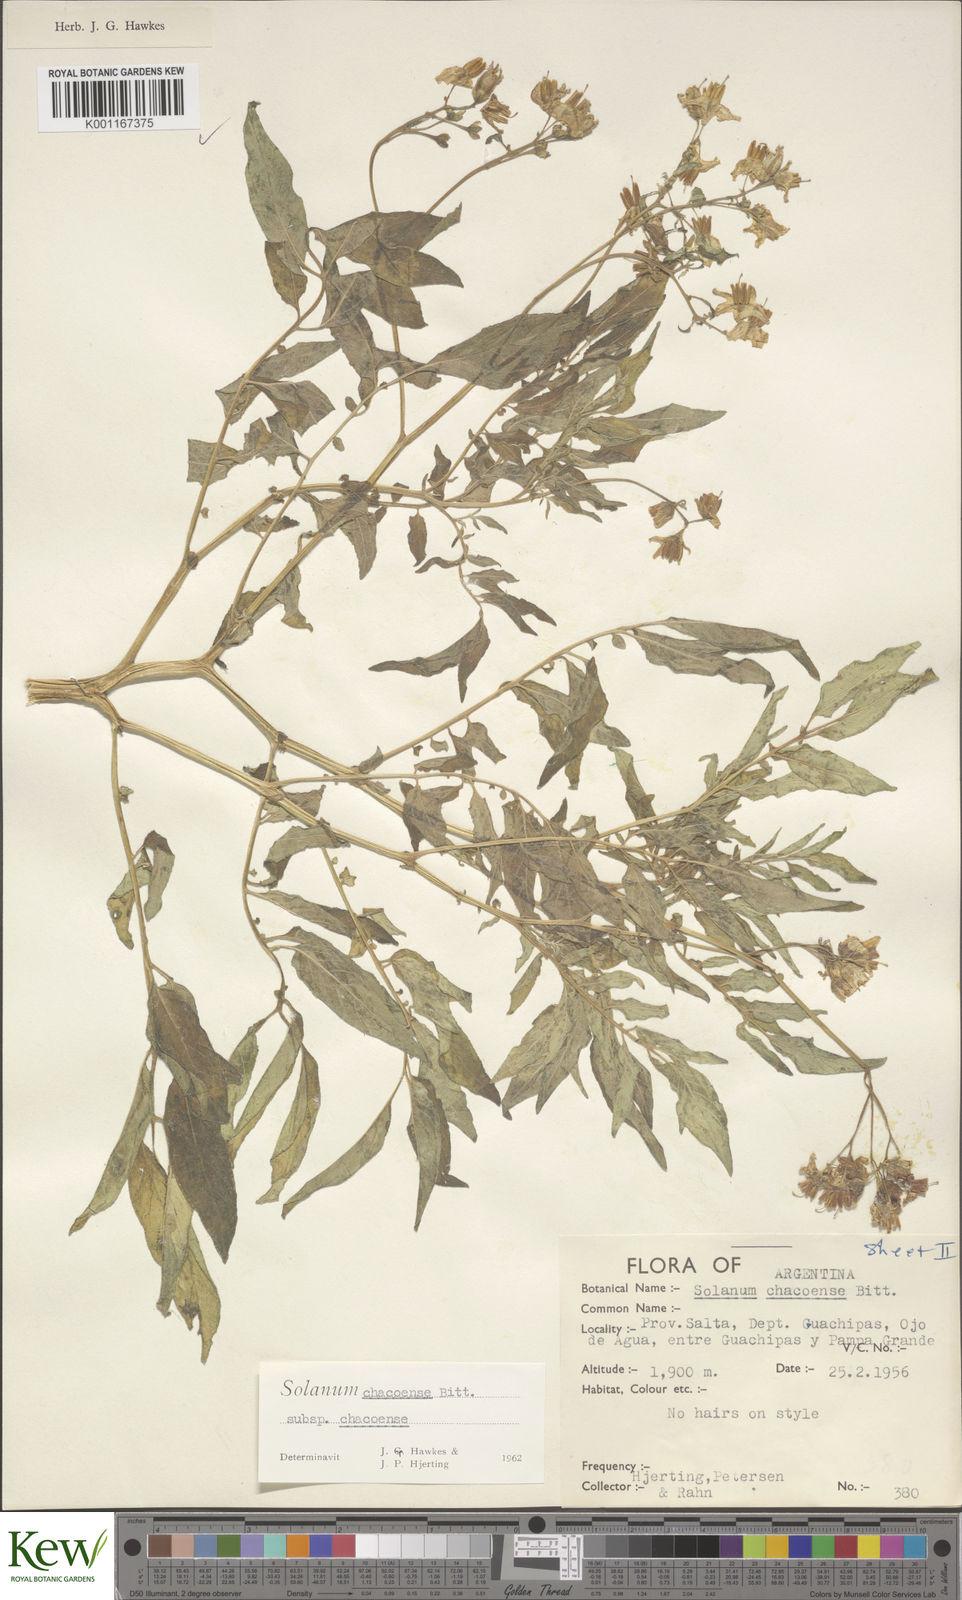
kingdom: Plantae
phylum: Tracheophyta
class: Magnoliopsida
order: Solanales
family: Solanaceae
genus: Solanum
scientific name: Solanum chacoense
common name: Chaco potato
